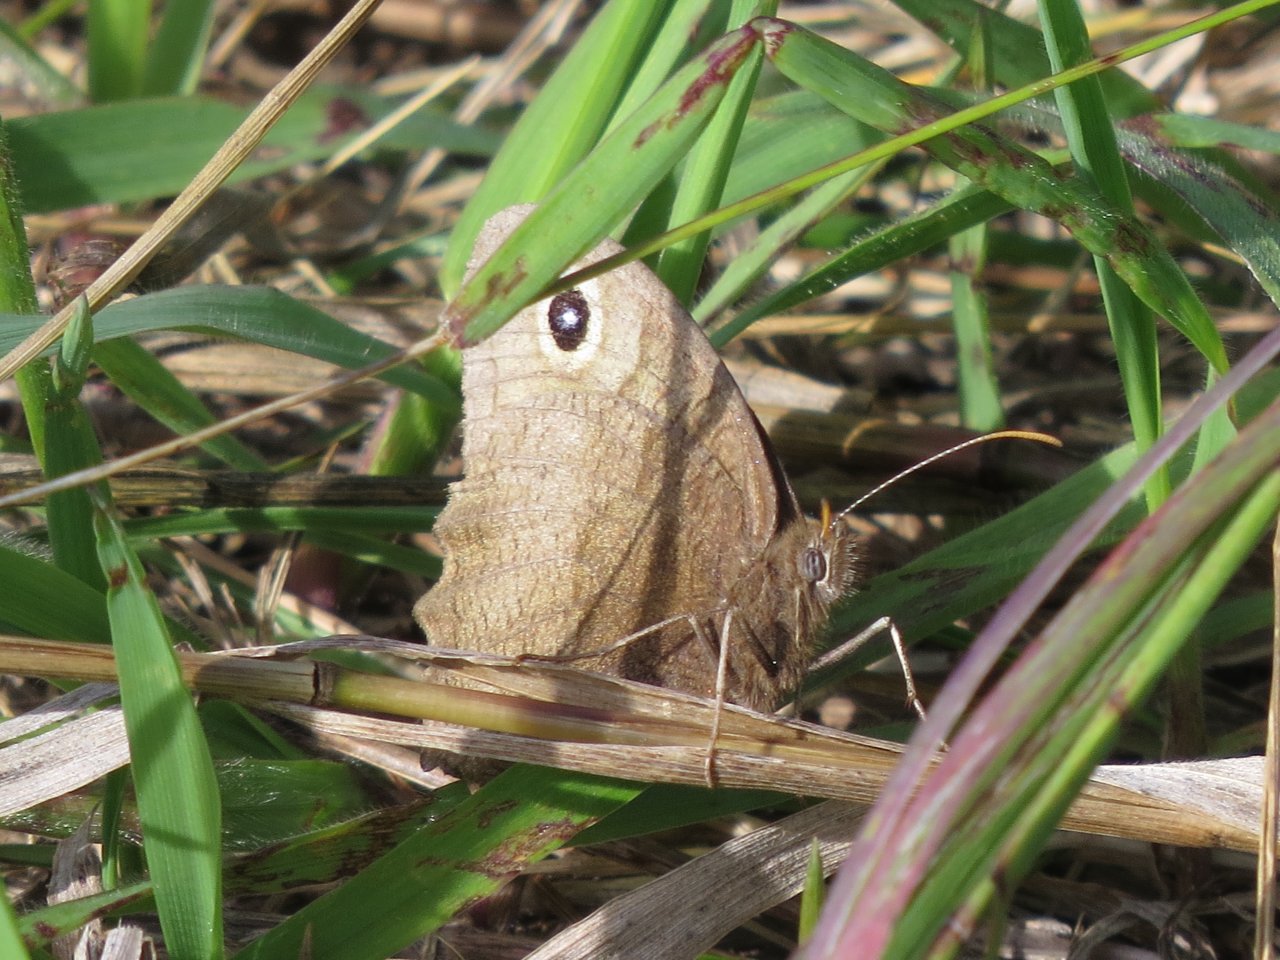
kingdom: Animalia
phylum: Arthropoda
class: Insecta
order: Lepidoptera
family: Nymphalidae
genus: Cercyonis
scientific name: Cercyonis pegala
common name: Common Wood-Nymph
